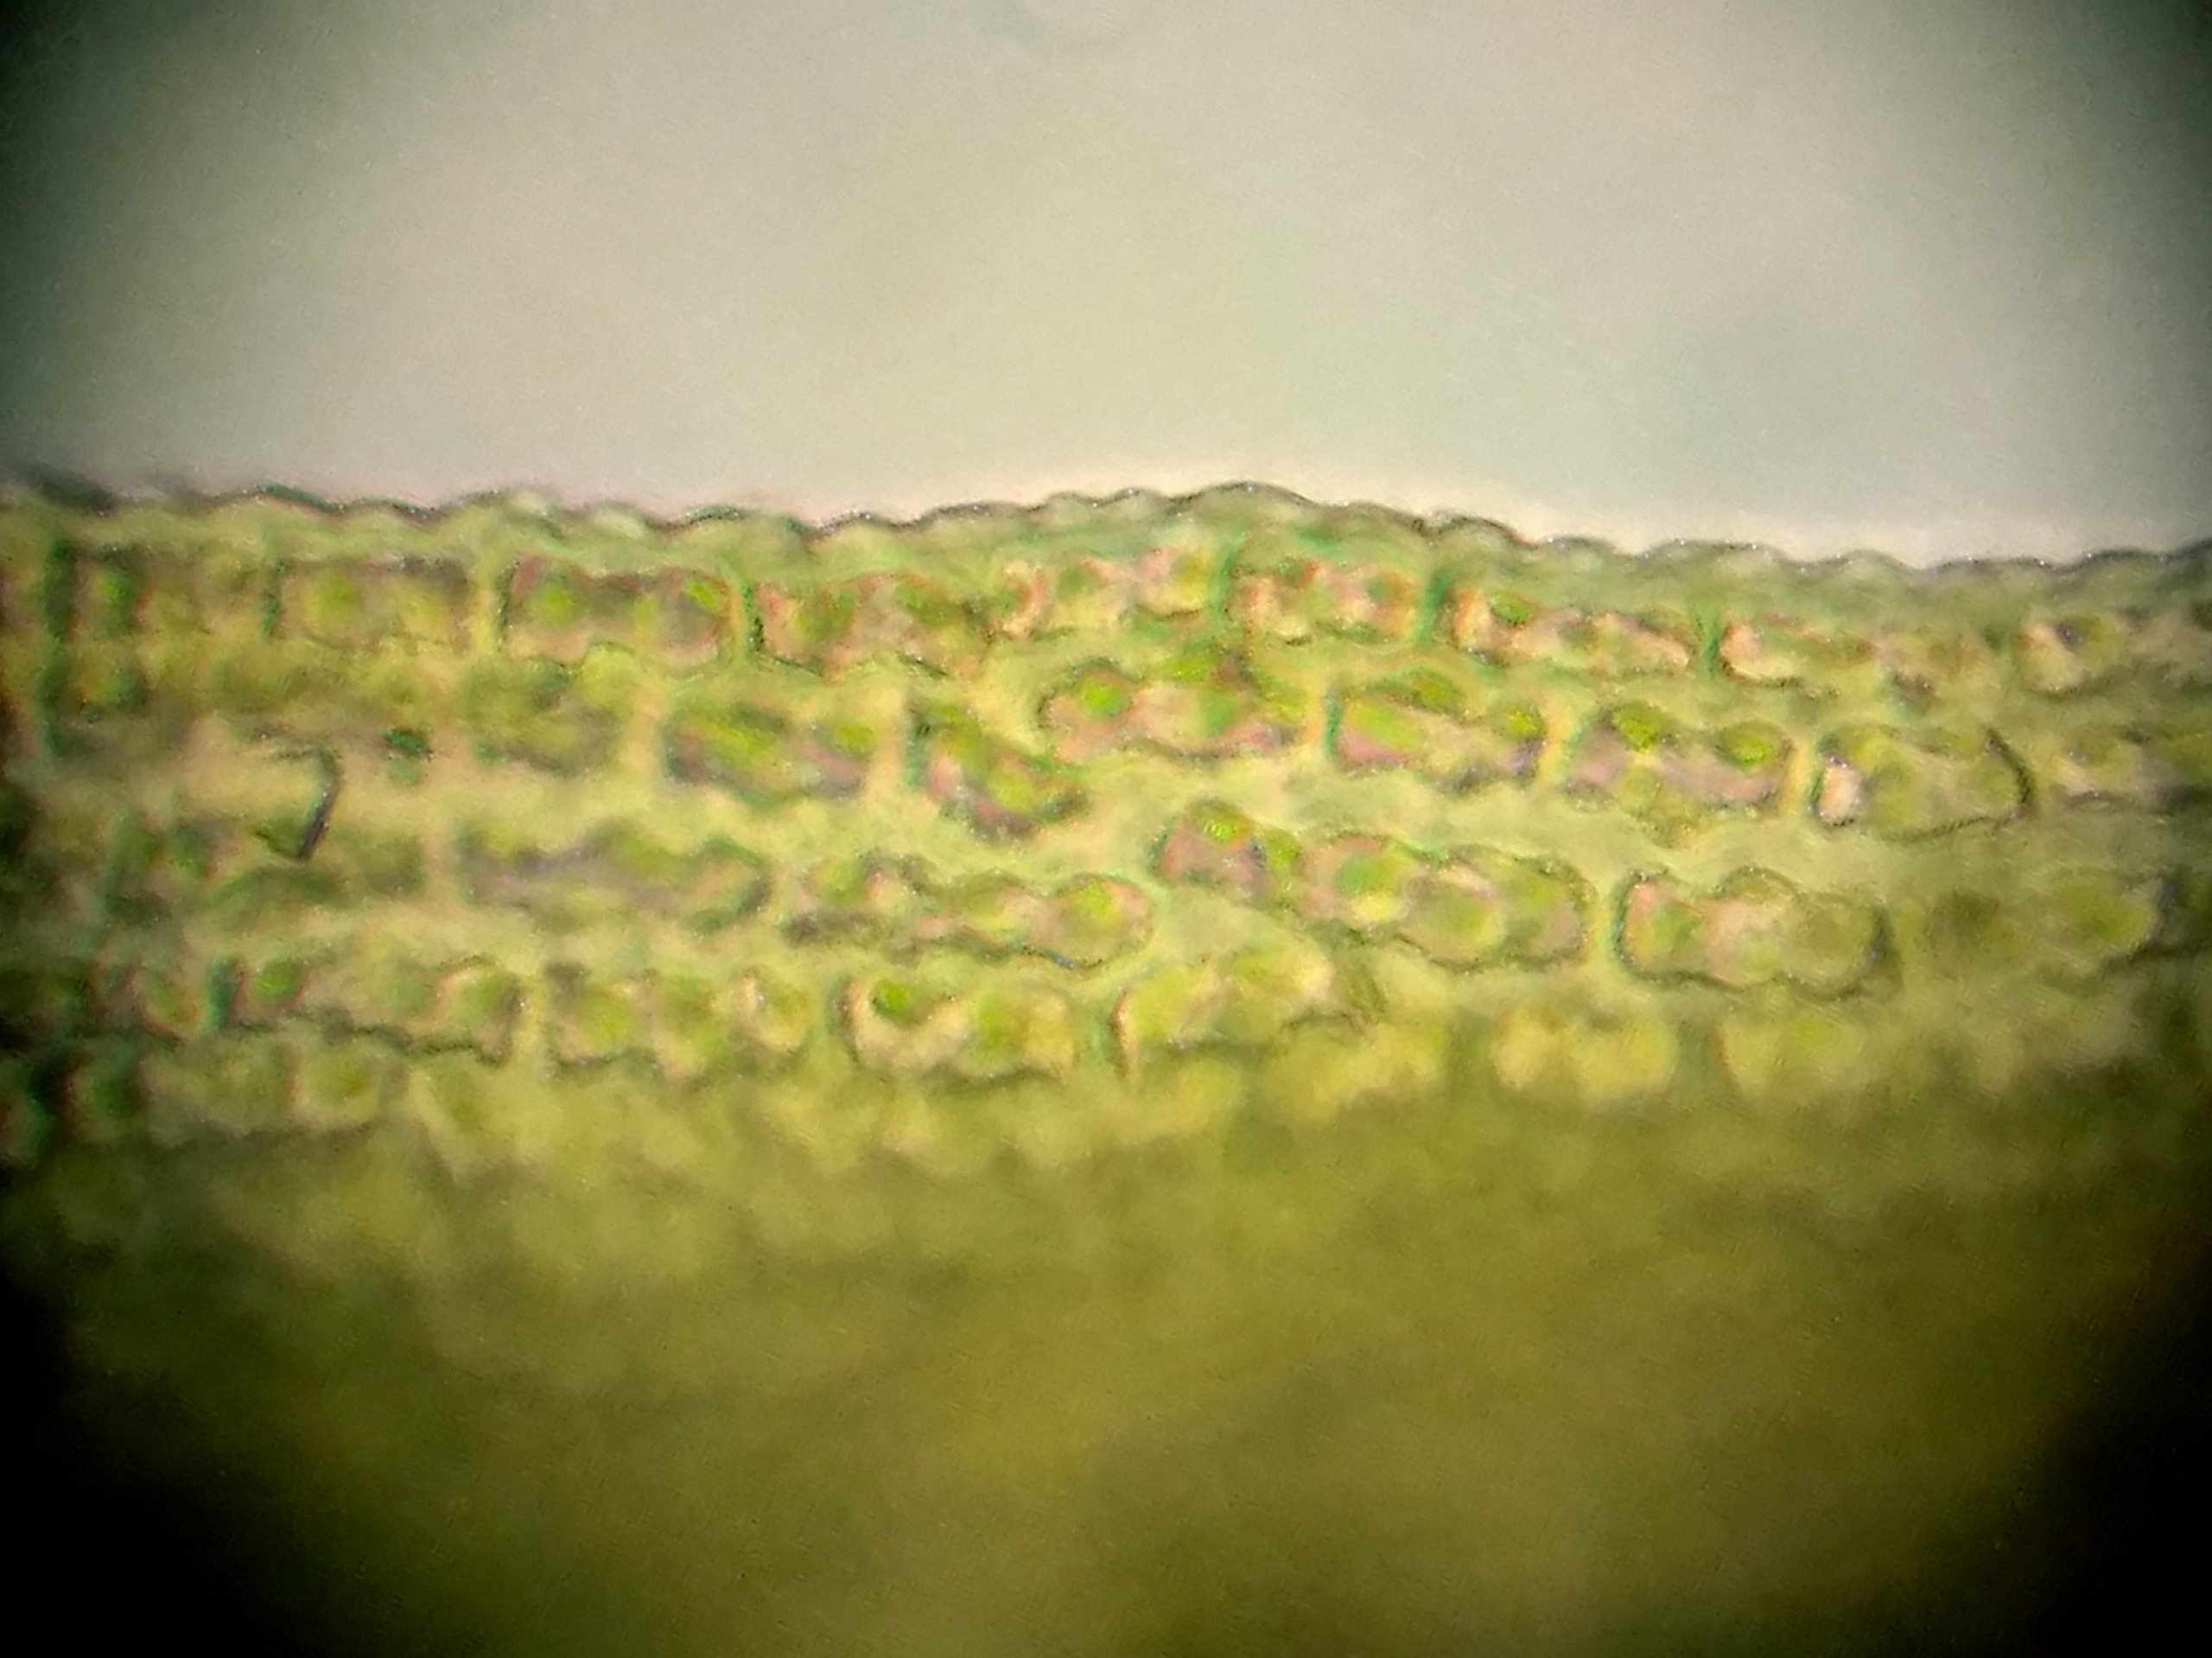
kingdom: Plantae
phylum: Bryophyta
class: Bryopsida
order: Grimmiales
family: Grimmiaceae
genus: Dilutineuron
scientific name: Dilutineuron fasciculare
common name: Knippe-børstemos
